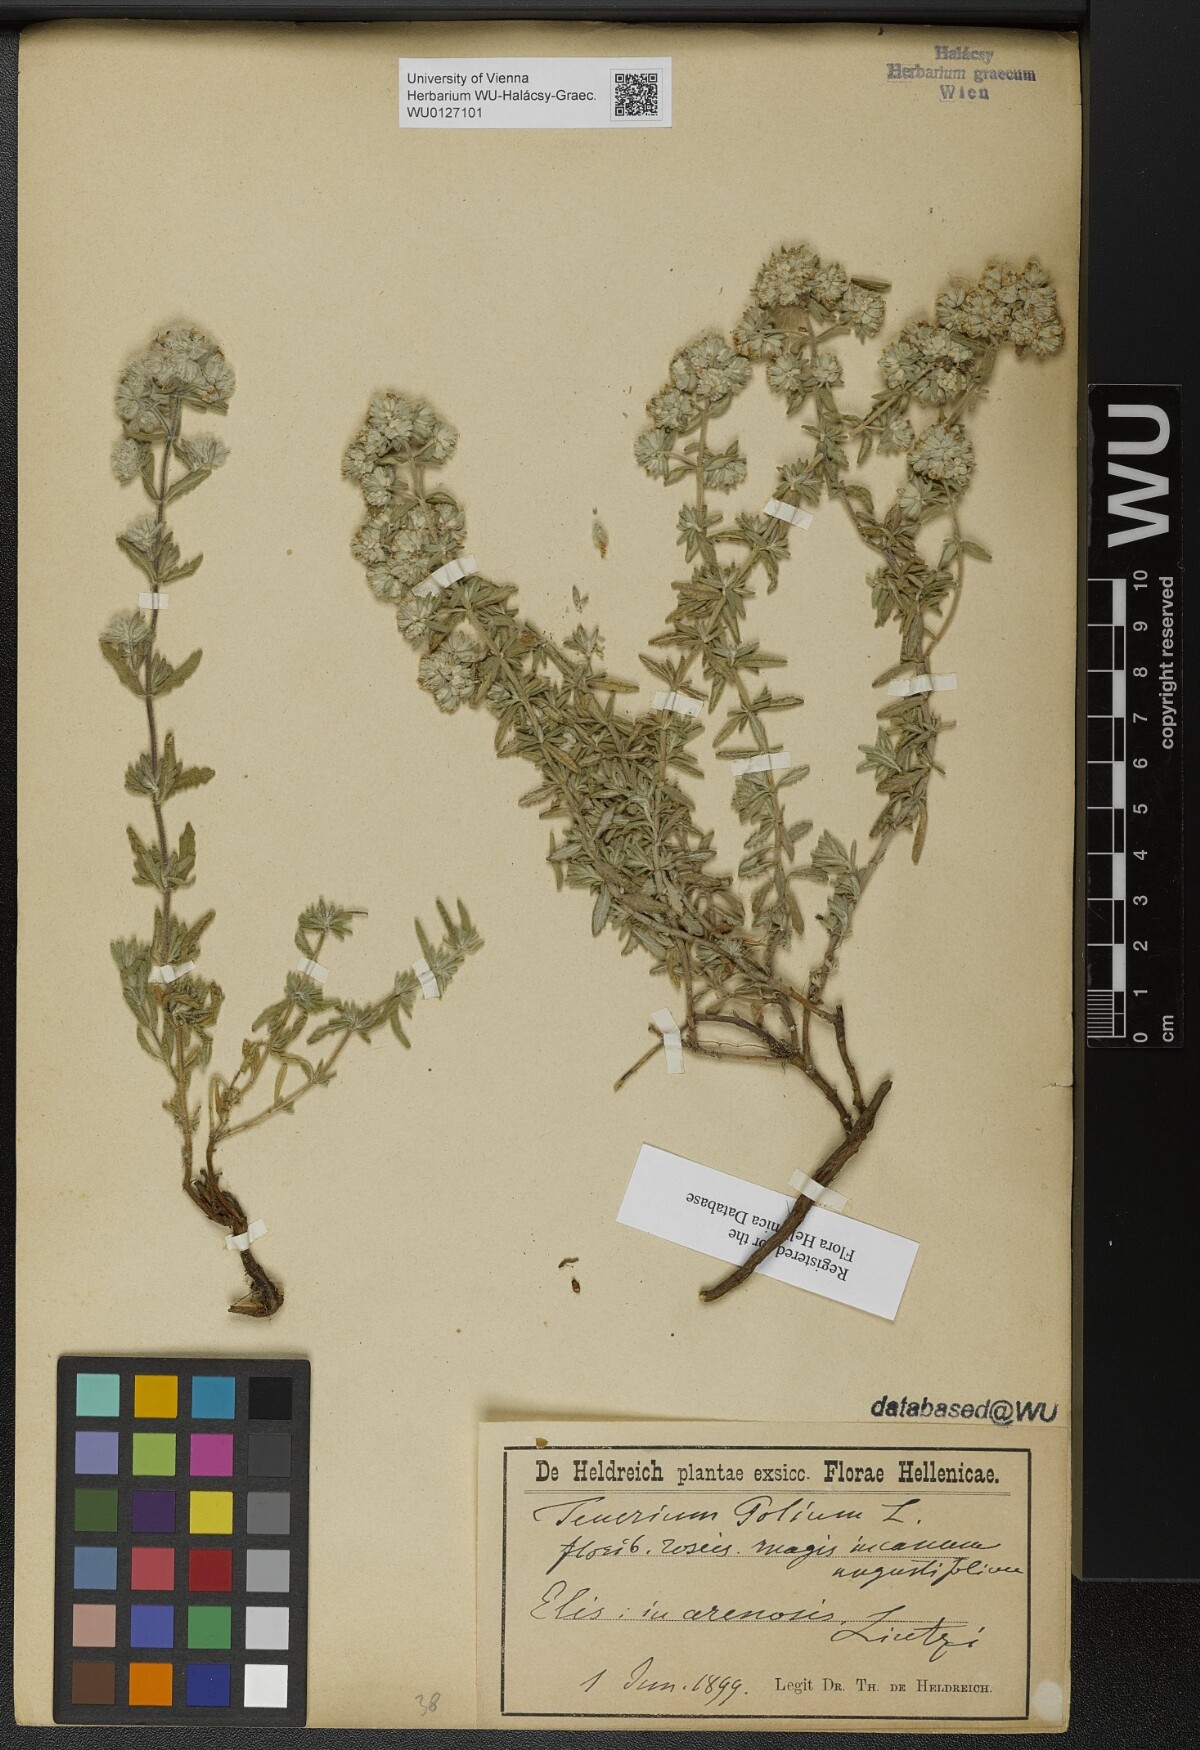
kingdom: Plantae
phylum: Tracheophyta
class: Magnoliopsida
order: Lamiales
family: Lamiaceae
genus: Teucrium
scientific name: Teucrium polium
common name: Poley
